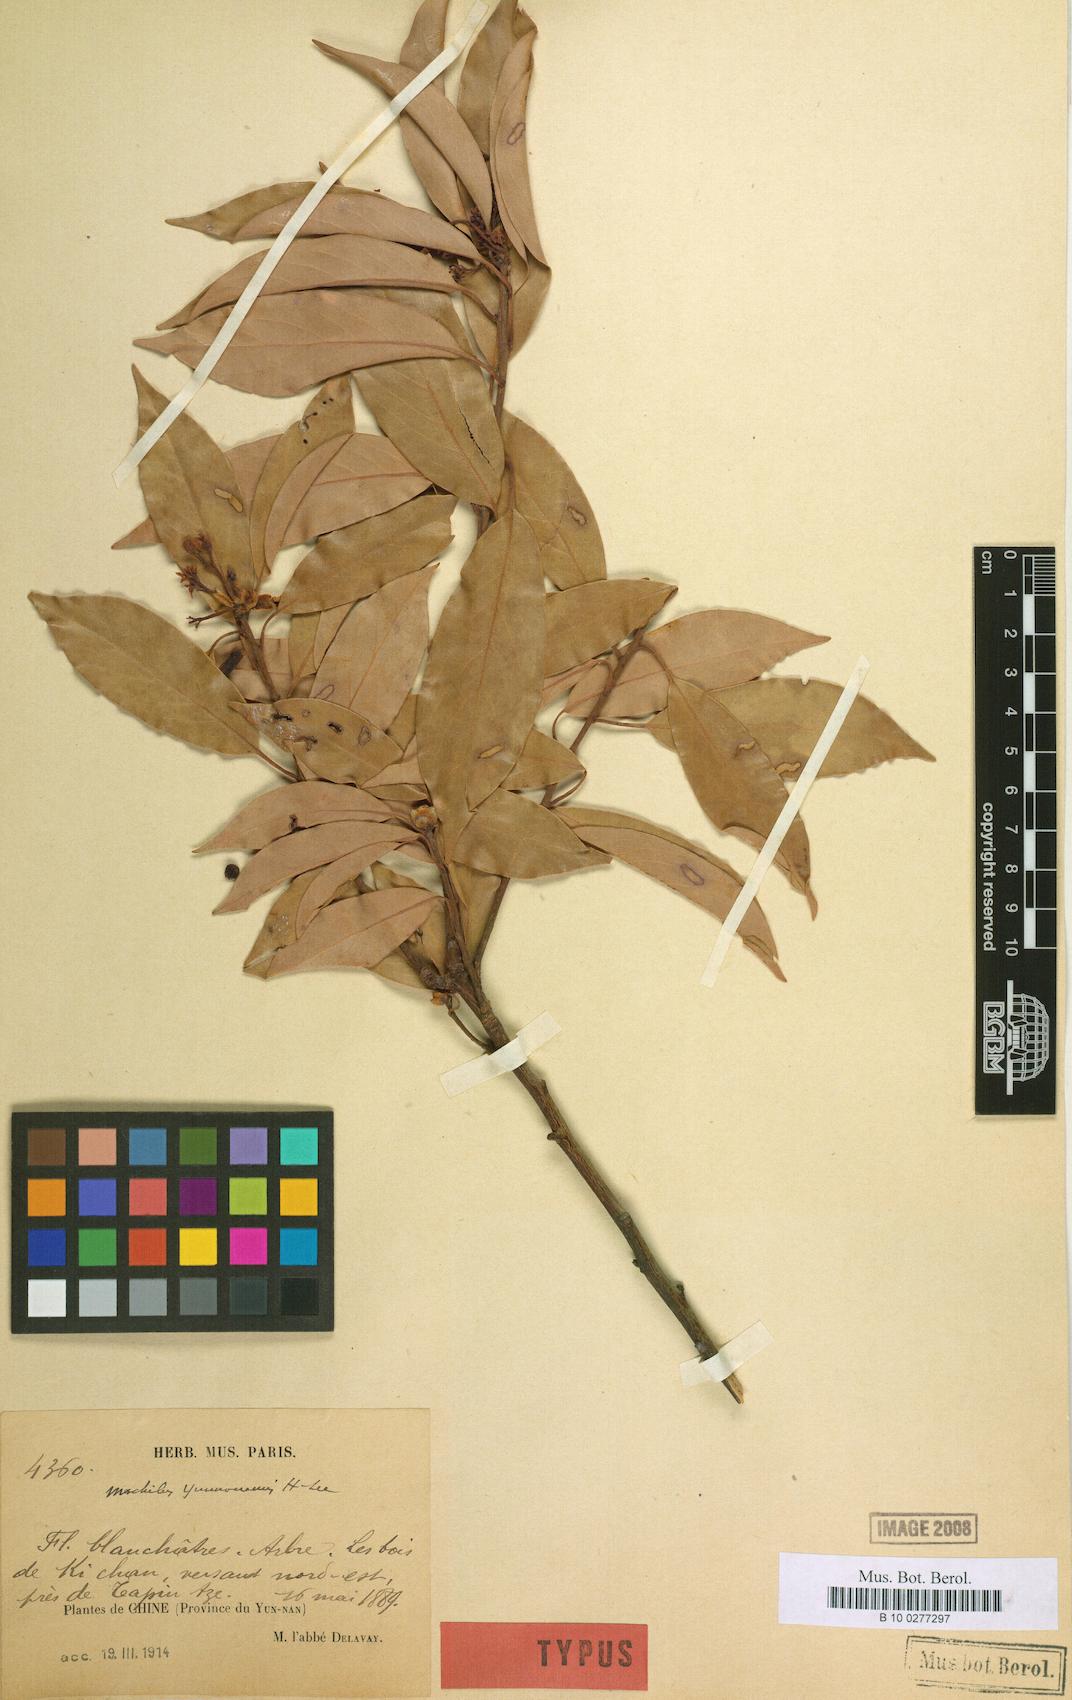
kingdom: Plantae
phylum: Tracheophyta
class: Magnoliopsida
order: Laurales
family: Lauraceae
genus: Machilus
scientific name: Machilus yunnanensis
